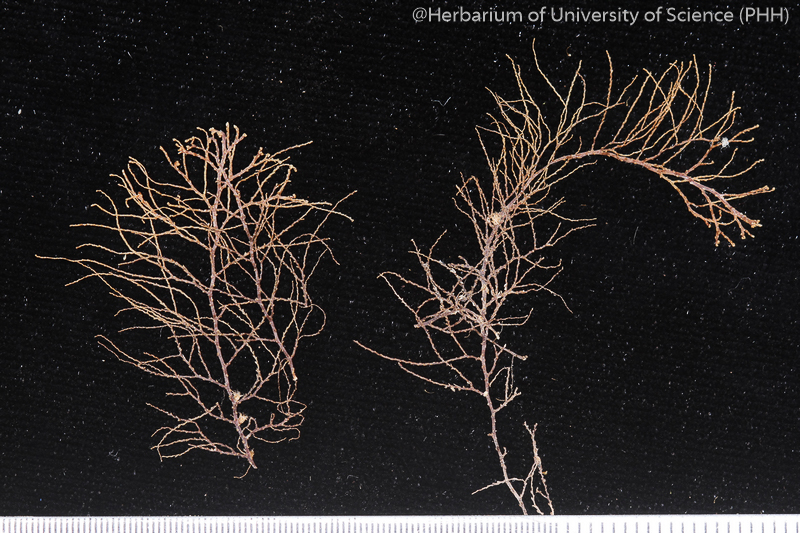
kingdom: Plantae
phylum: Marchantiophyta
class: Jungermanniopsida
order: Jungermanniales
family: Lepidoziaceae
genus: Lepidozia
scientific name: Lepidozia
